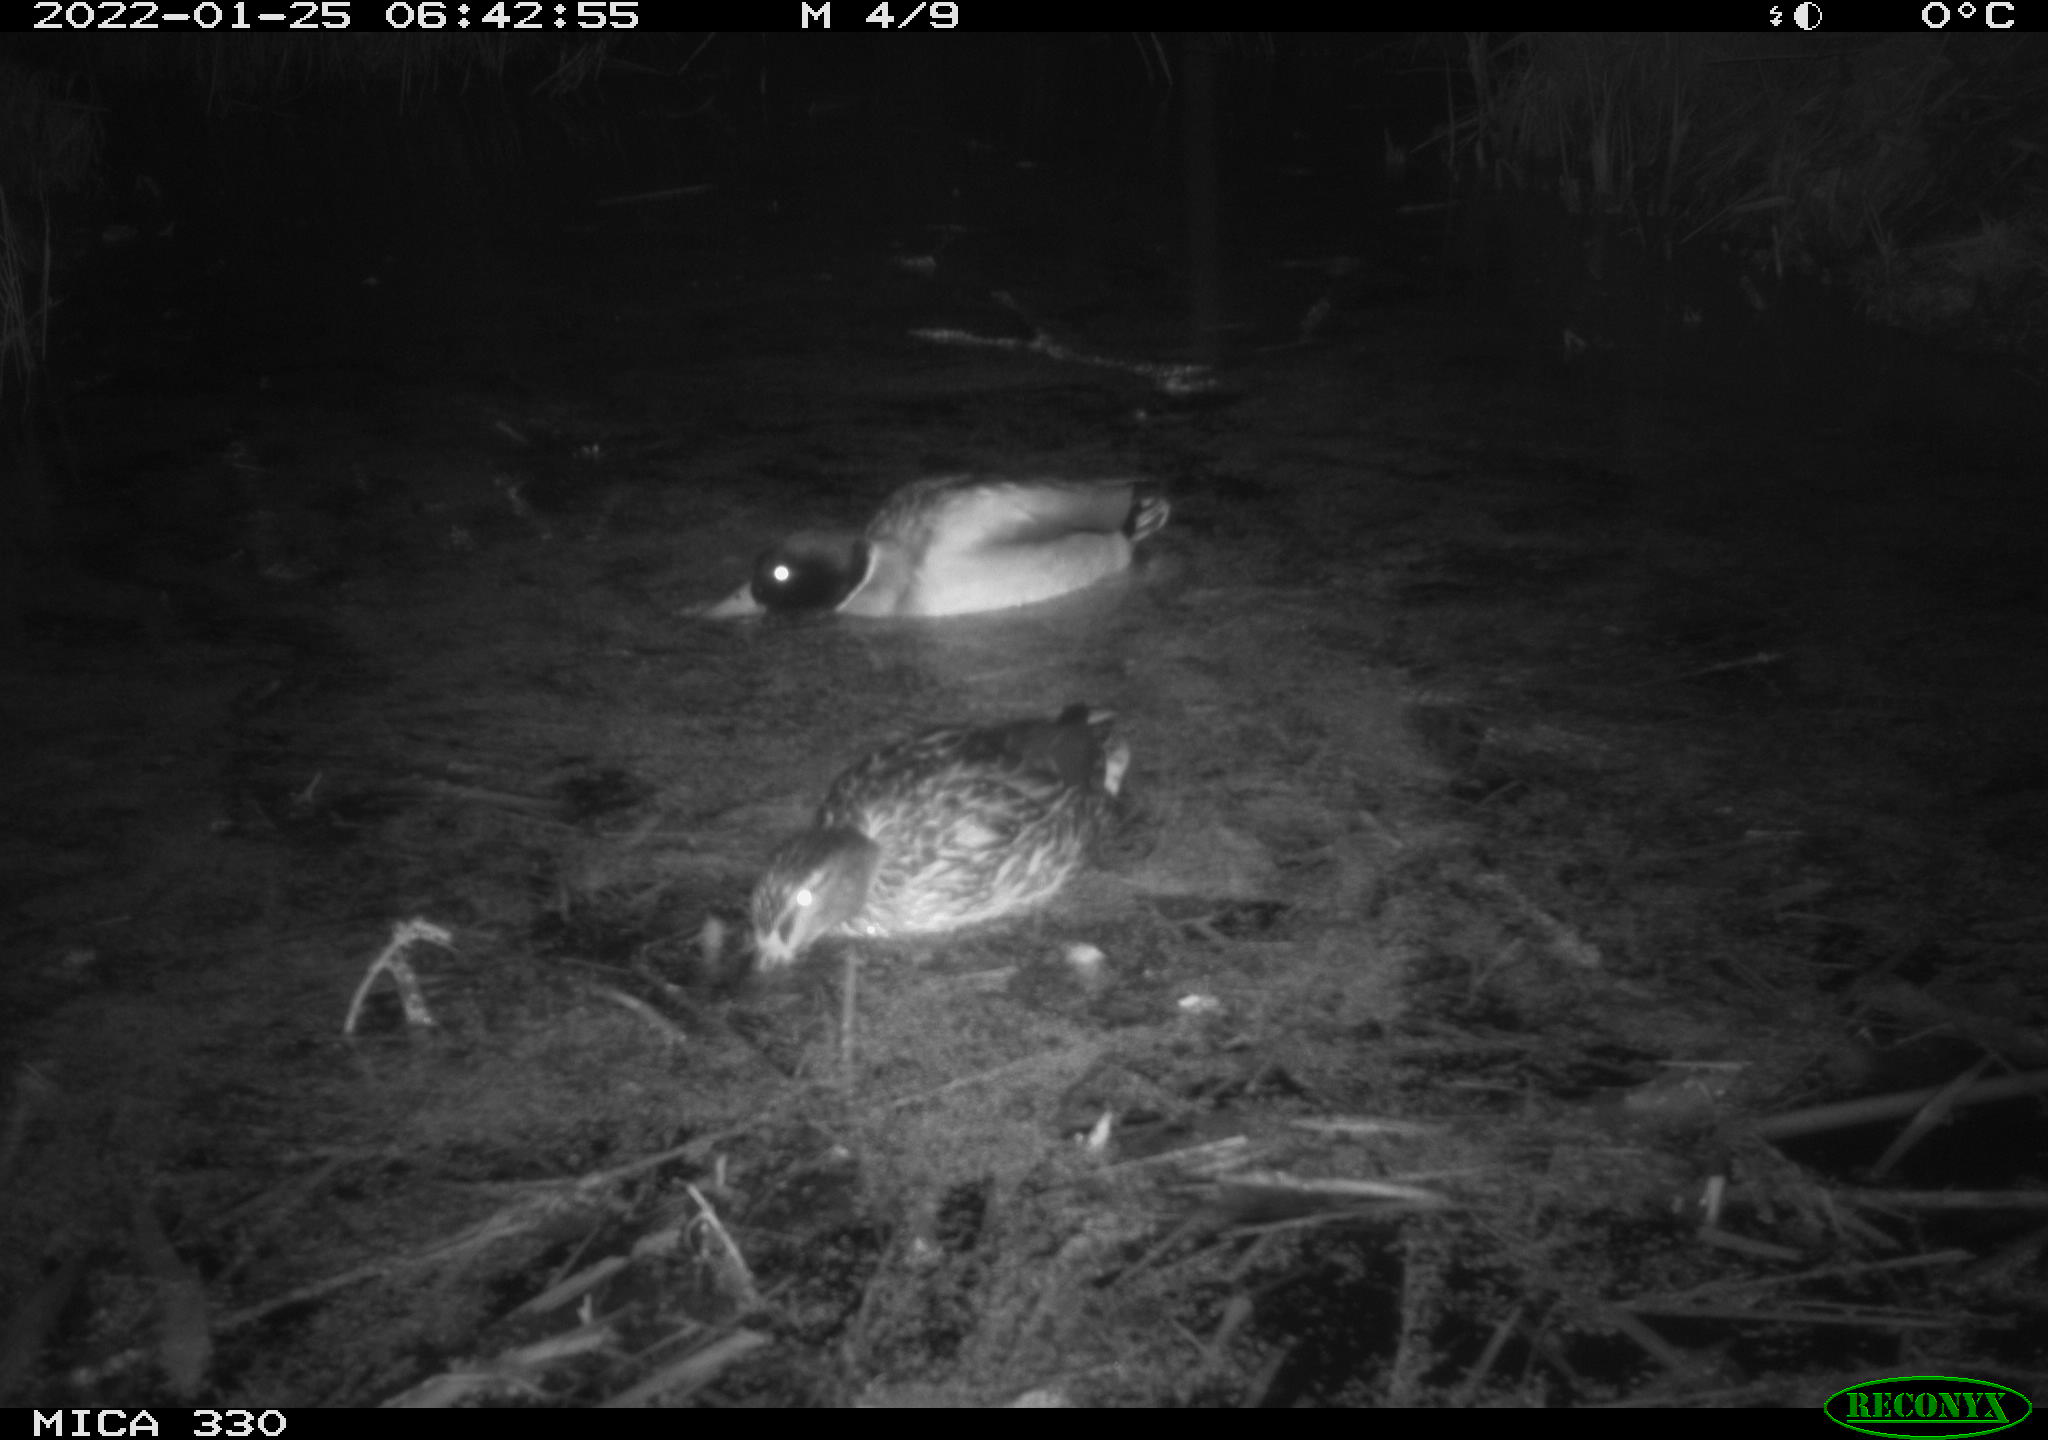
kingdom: Animalia
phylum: Chordata
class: Aves
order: Anseriformes
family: Anatidae
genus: Anas
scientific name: Anas platyrhynchos
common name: Mallard
